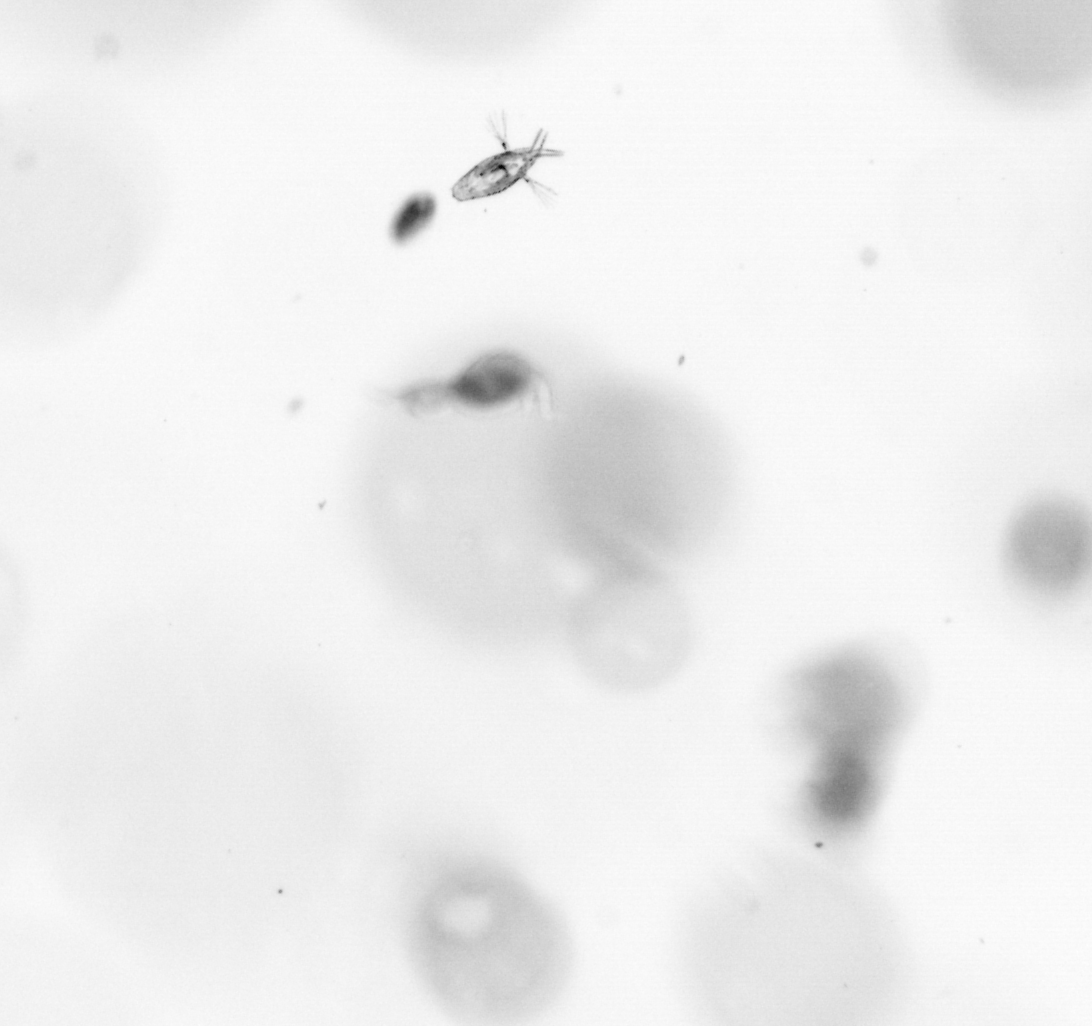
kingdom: Animalia
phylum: Arthropoda
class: Copepoda
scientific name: Copepoda
